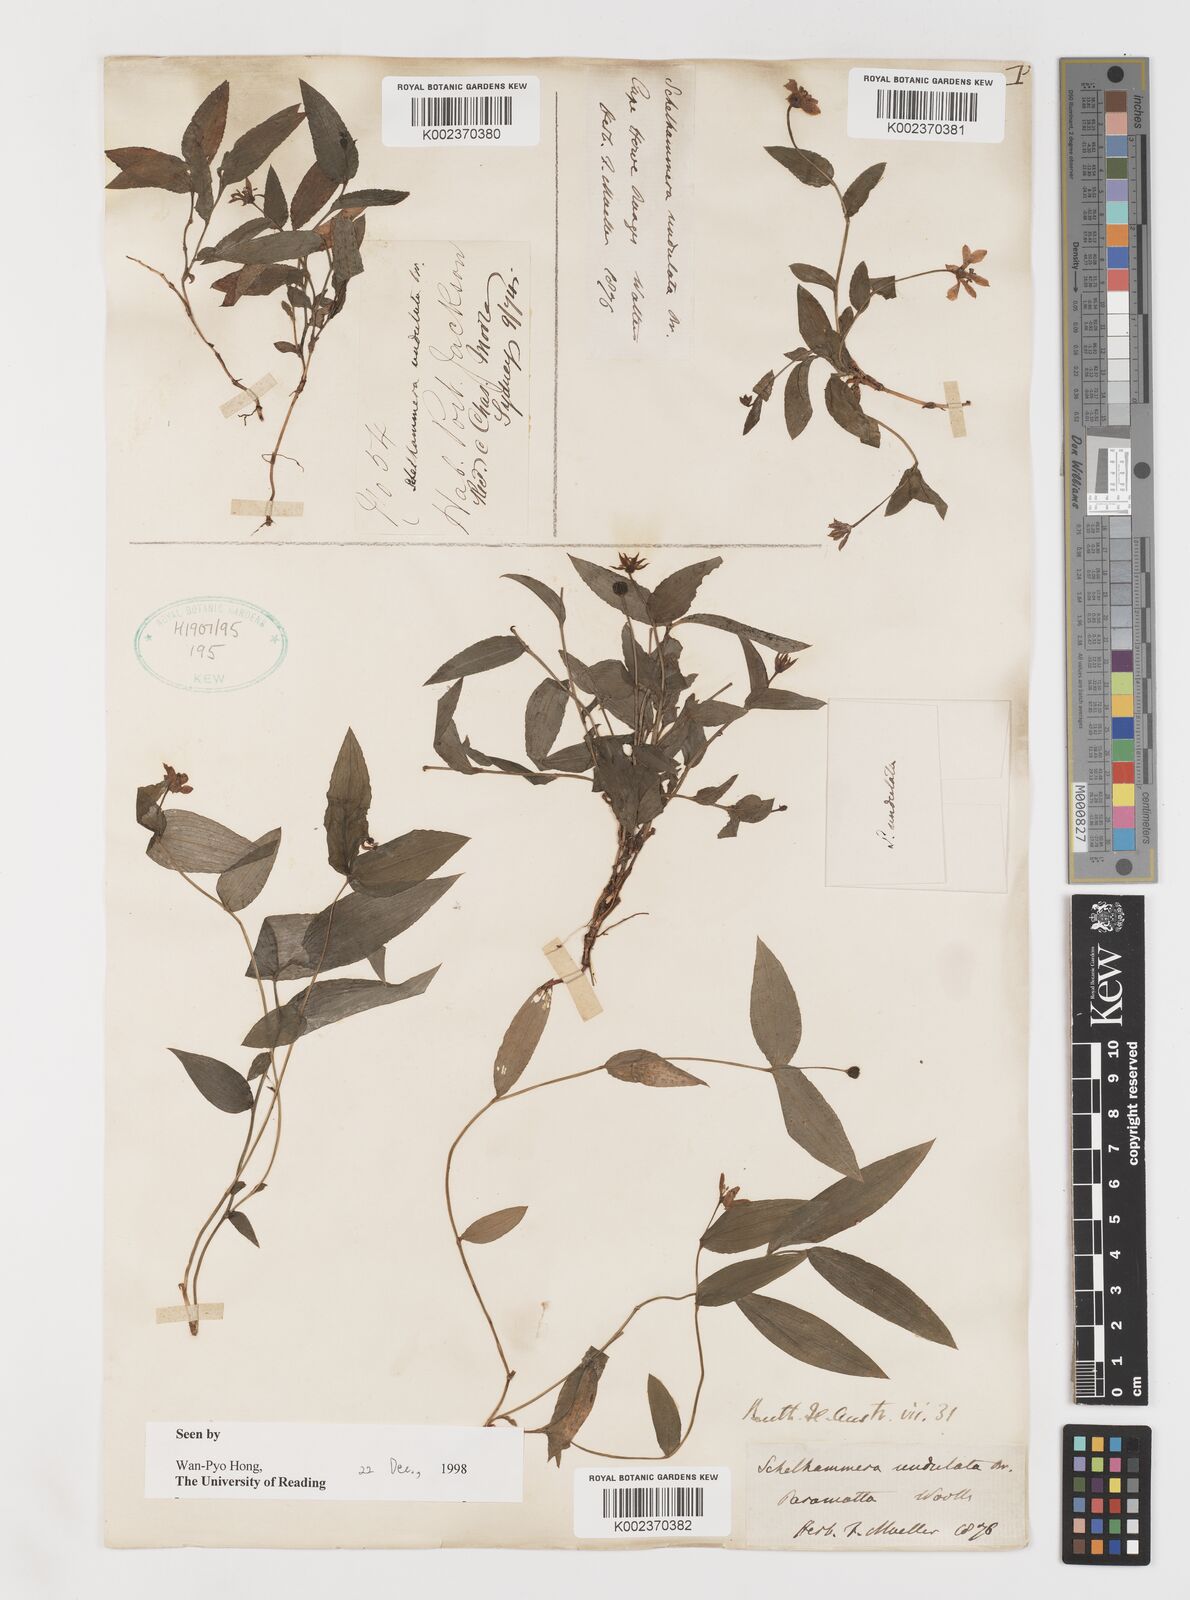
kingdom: Plantae
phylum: Tracheophyta
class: Liliopsida
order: Liliales
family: Colchicaceae
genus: Schelhammera
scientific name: Schelhammera undulata
